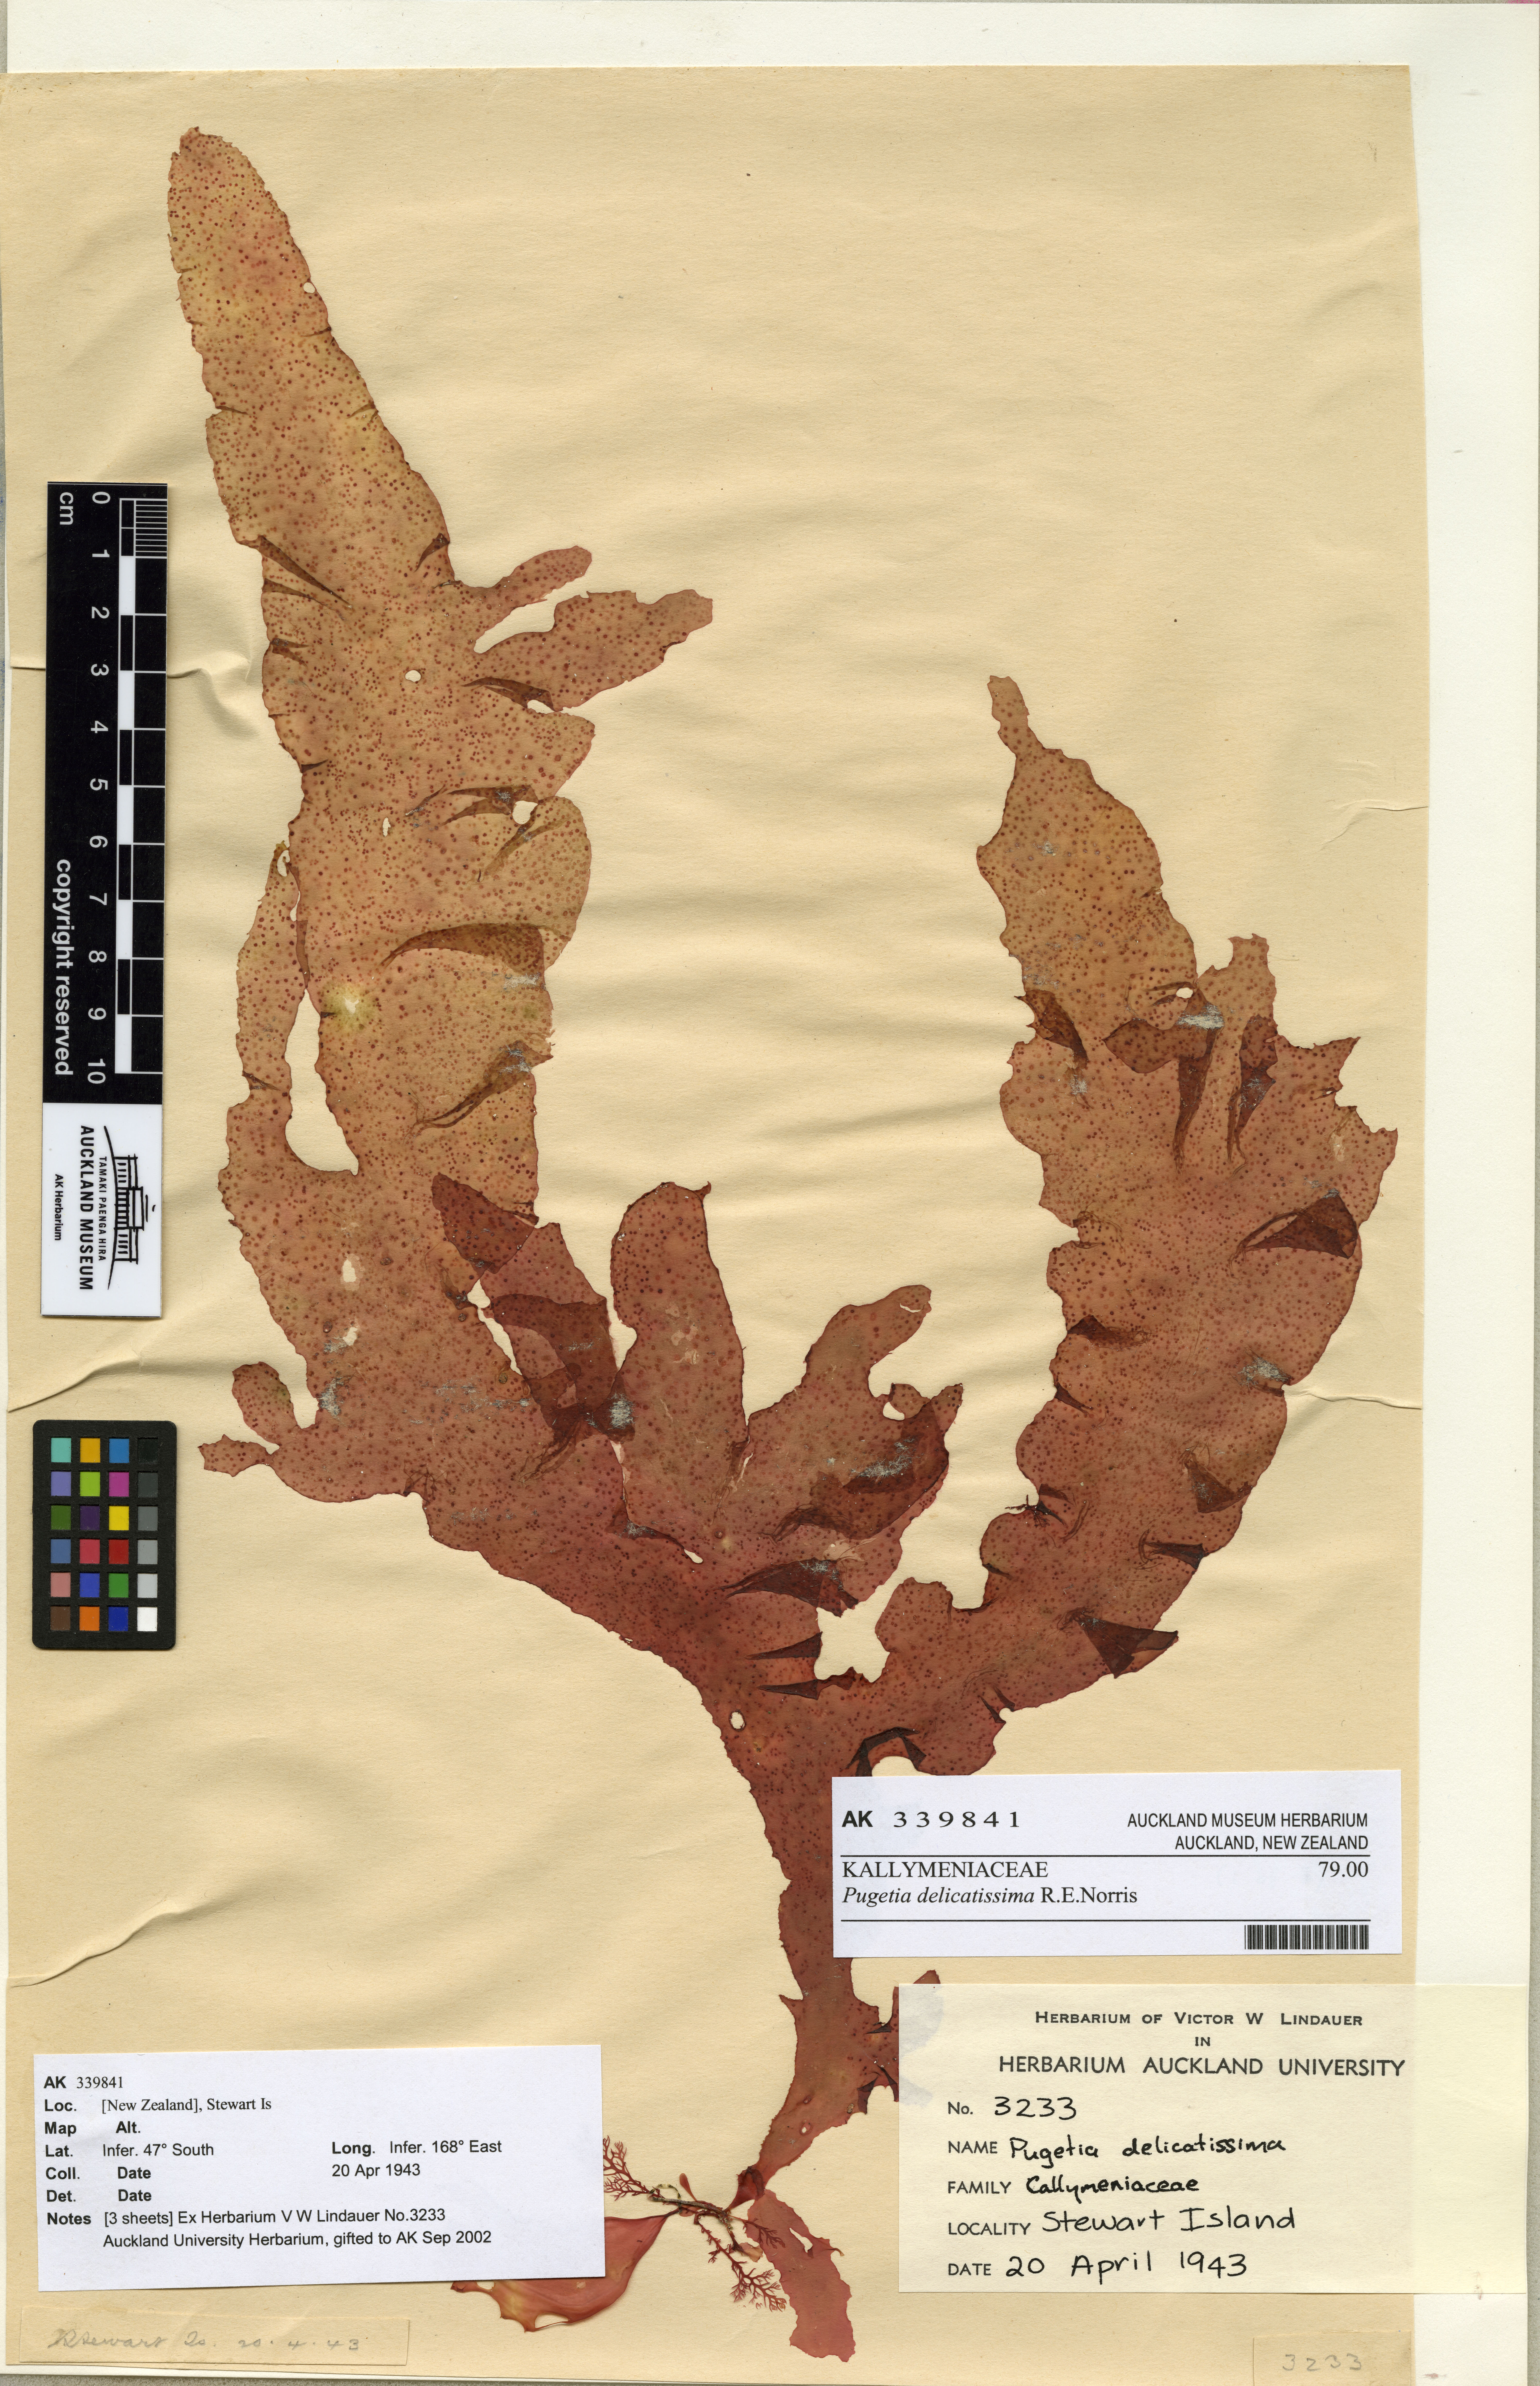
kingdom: Plantae
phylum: Rhodophyta
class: Florideophyceae
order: Gigartinales
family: Kallymeniaceae
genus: Pugetia
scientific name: Pugetia
